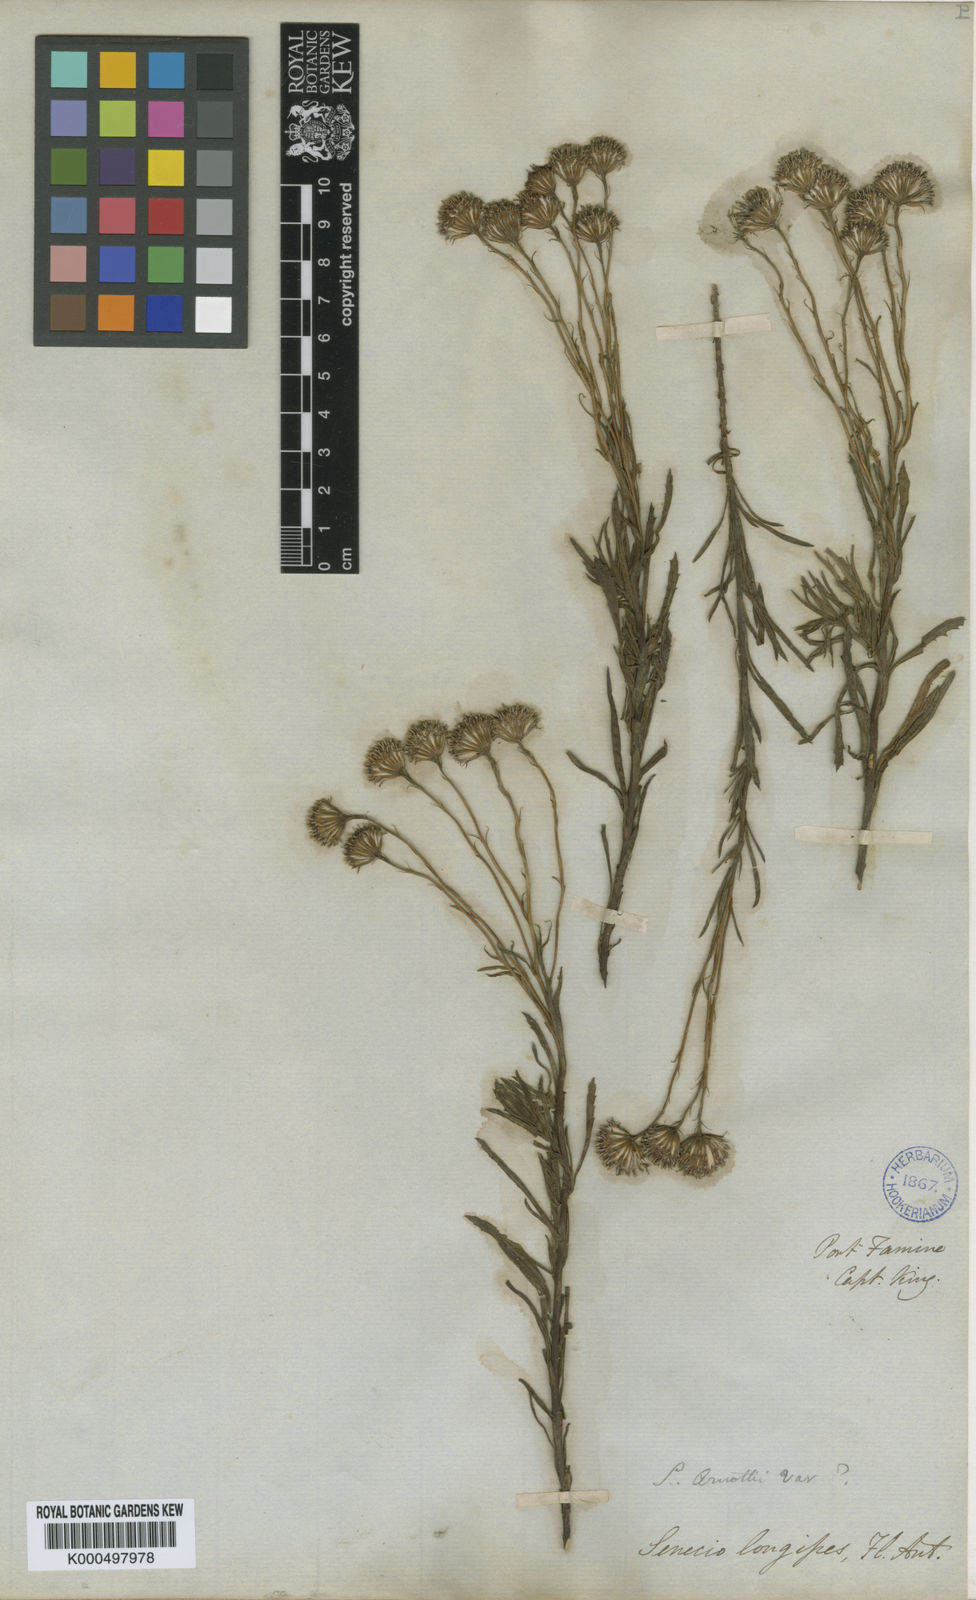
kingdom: Plantae
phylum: Tracheophyta
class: Magnoliopsida
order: Asterales
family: Asteraceae
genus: Kleinia
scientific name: Kleinia grantii
